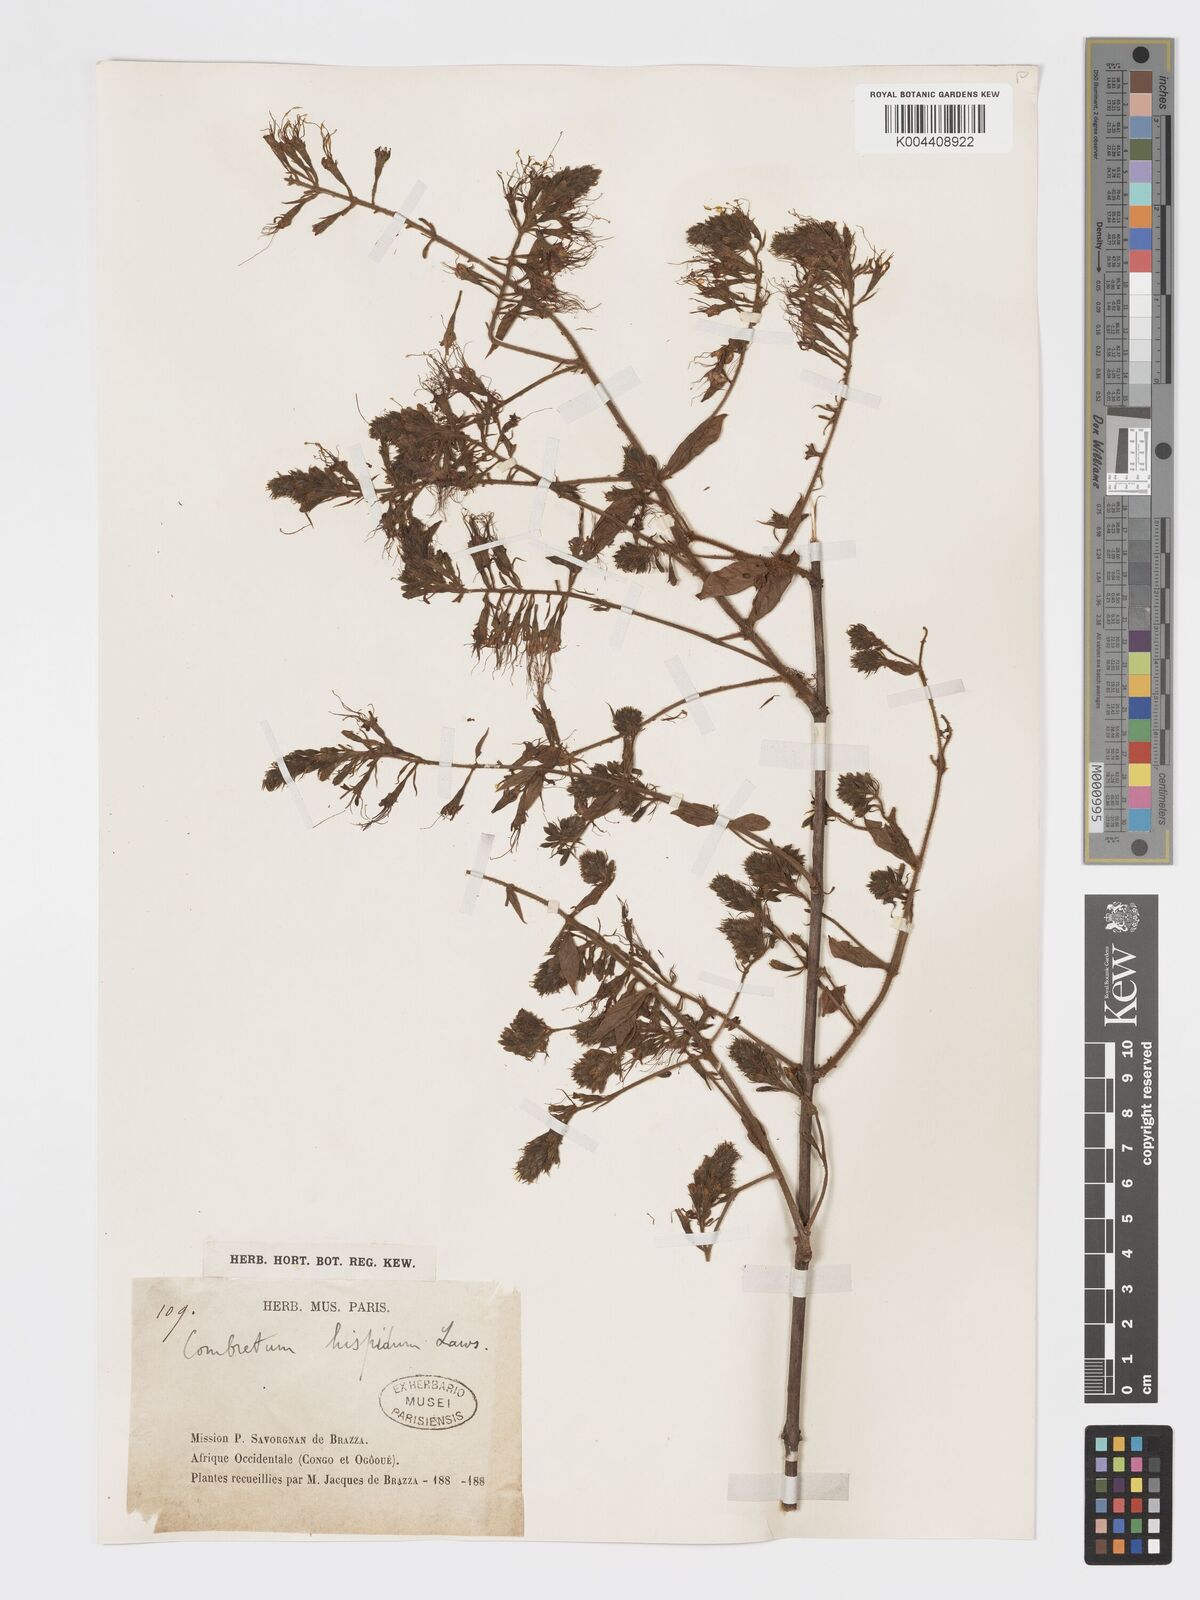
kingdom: Plantae
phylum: Tracheophyta
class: Magnoliopsida
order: Myrtales
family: Combretaceae
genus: Combretum
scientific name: Combretum comosum
